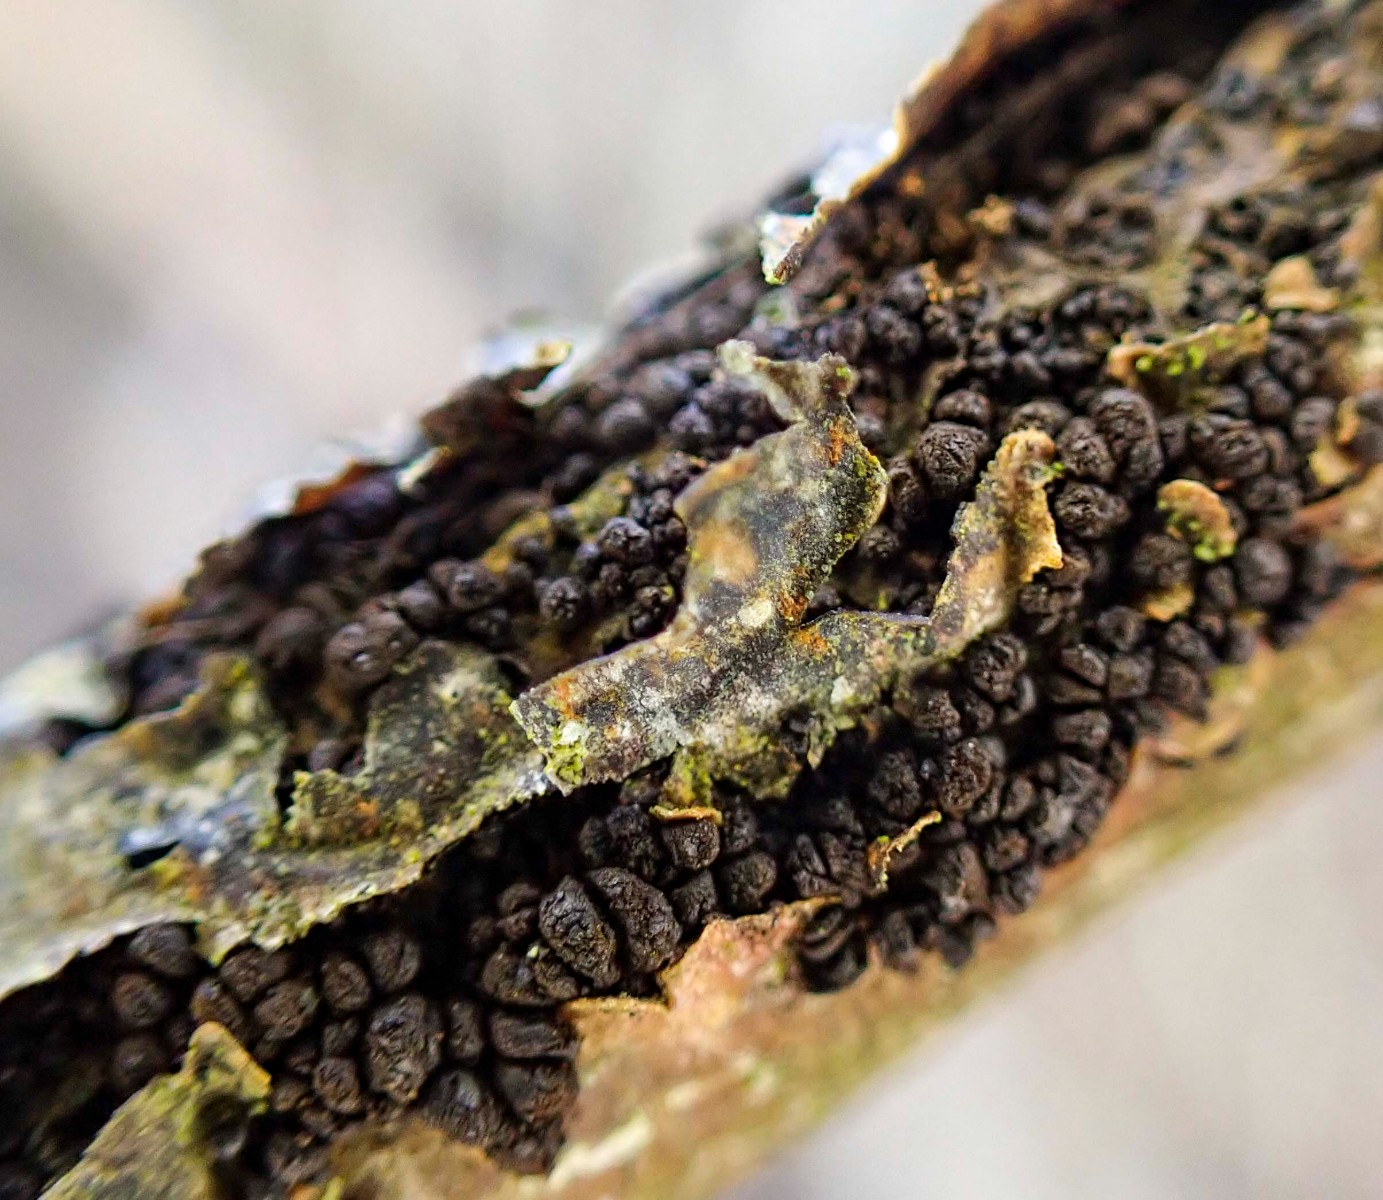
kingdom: Fungi
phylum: Ascomycota
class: Leotiomycetes
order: Helotiales
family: Godroniaceae
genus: Godronia
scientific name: Godronia fuliginosa
